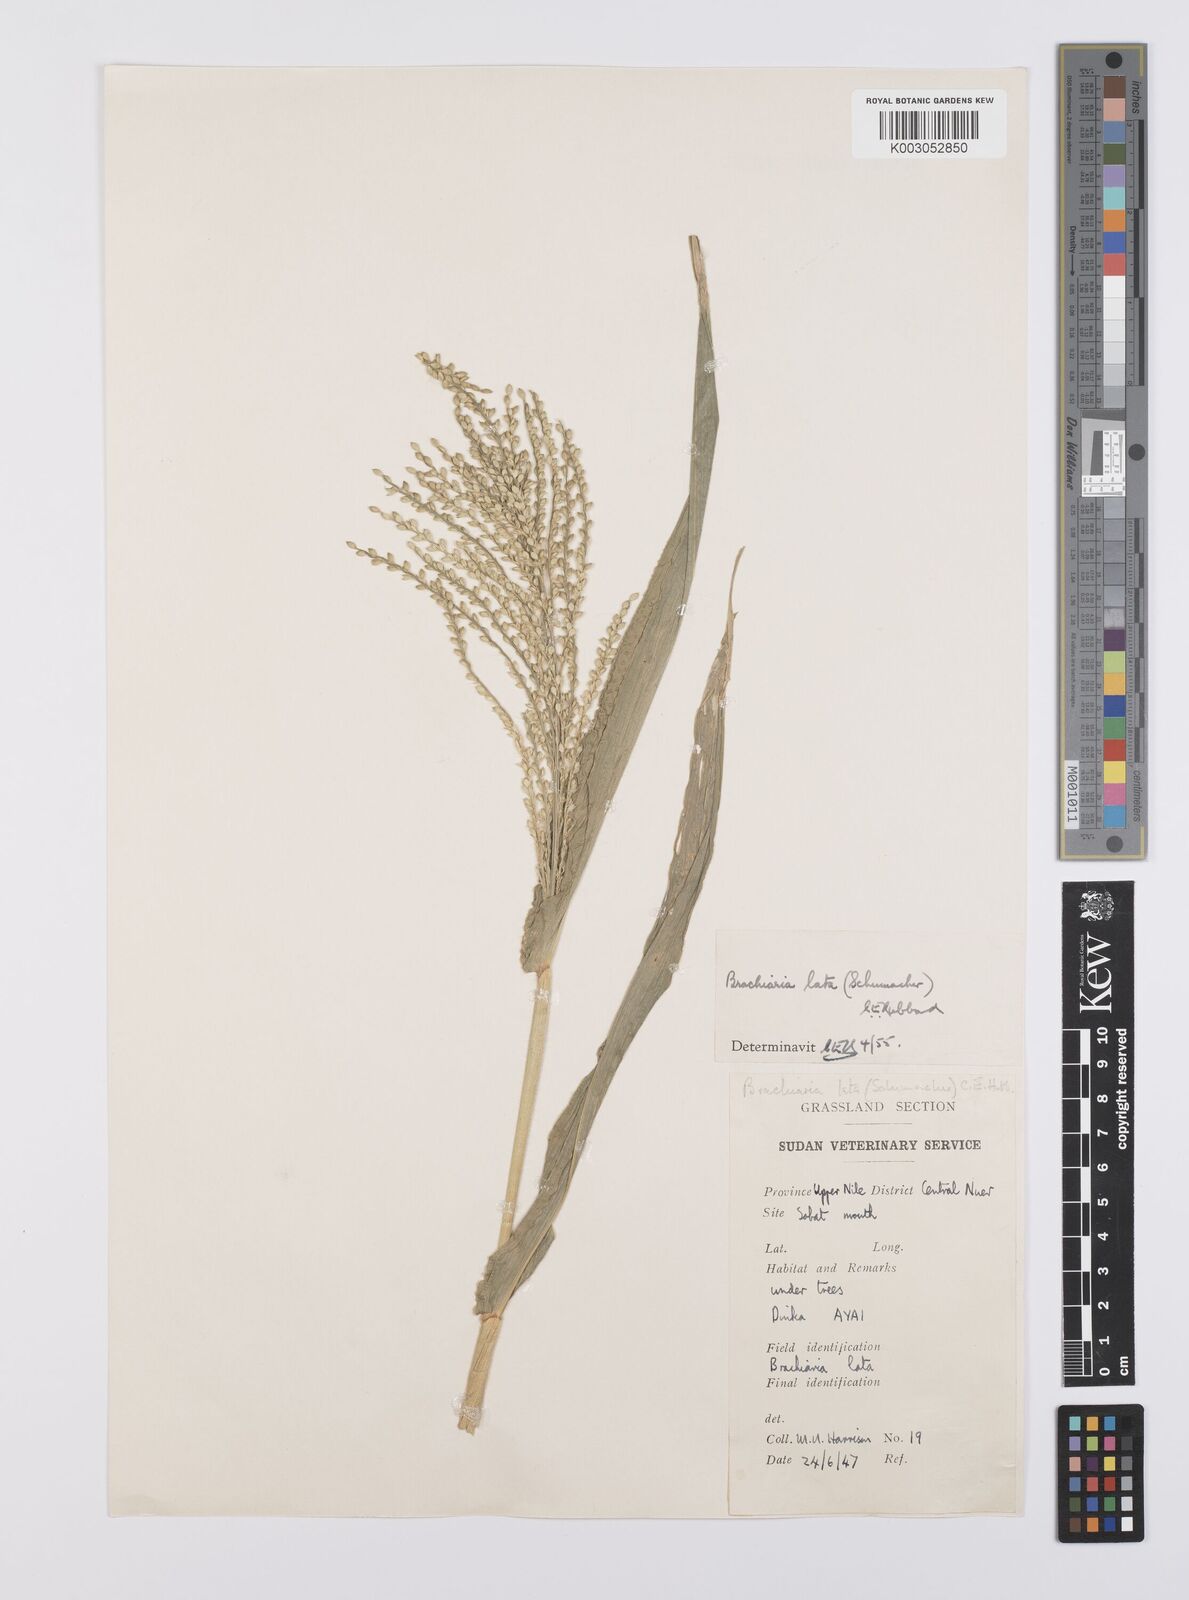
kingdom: Plantae
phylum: Tracheophyta
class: Liliopsida
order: Poales
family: Poaceae
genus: Urochloa
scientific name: Urochloa lata
